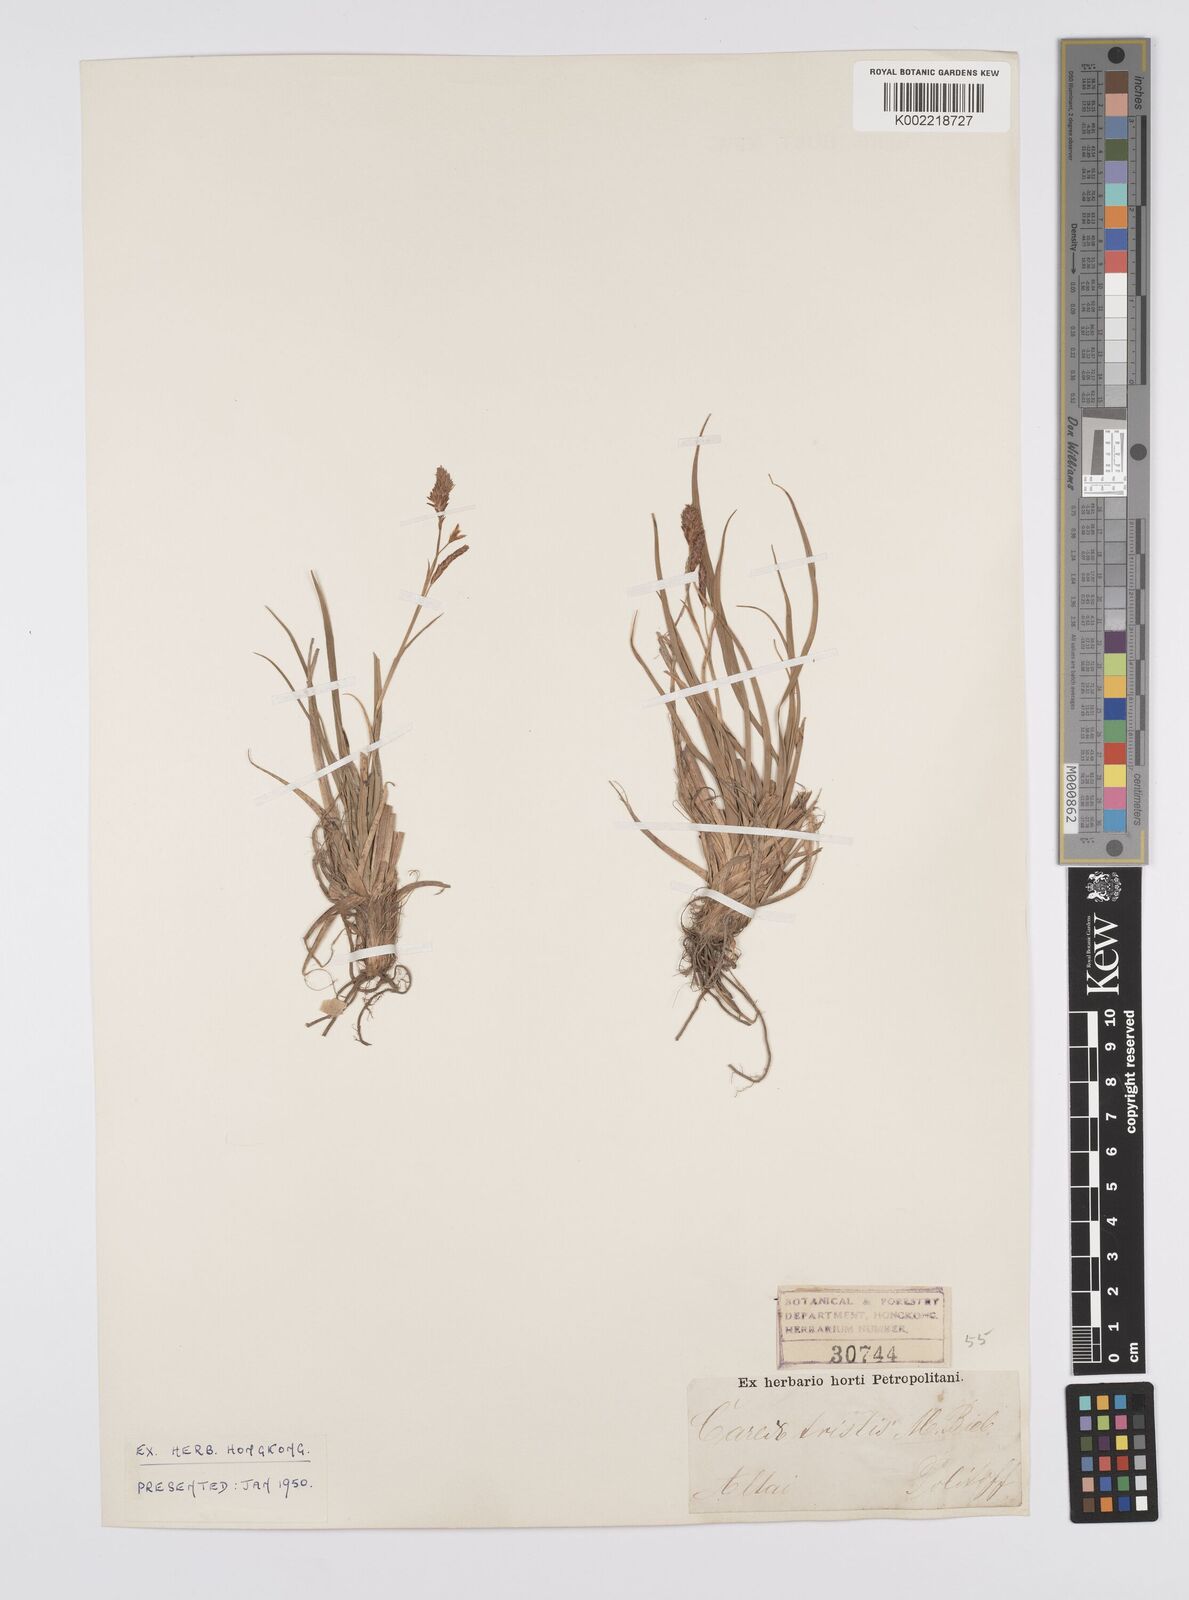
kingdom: Plantae
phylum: Tracheophyta
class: Liliopsida
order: Poales
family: Cyperaceae
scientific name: Cyperaceae
